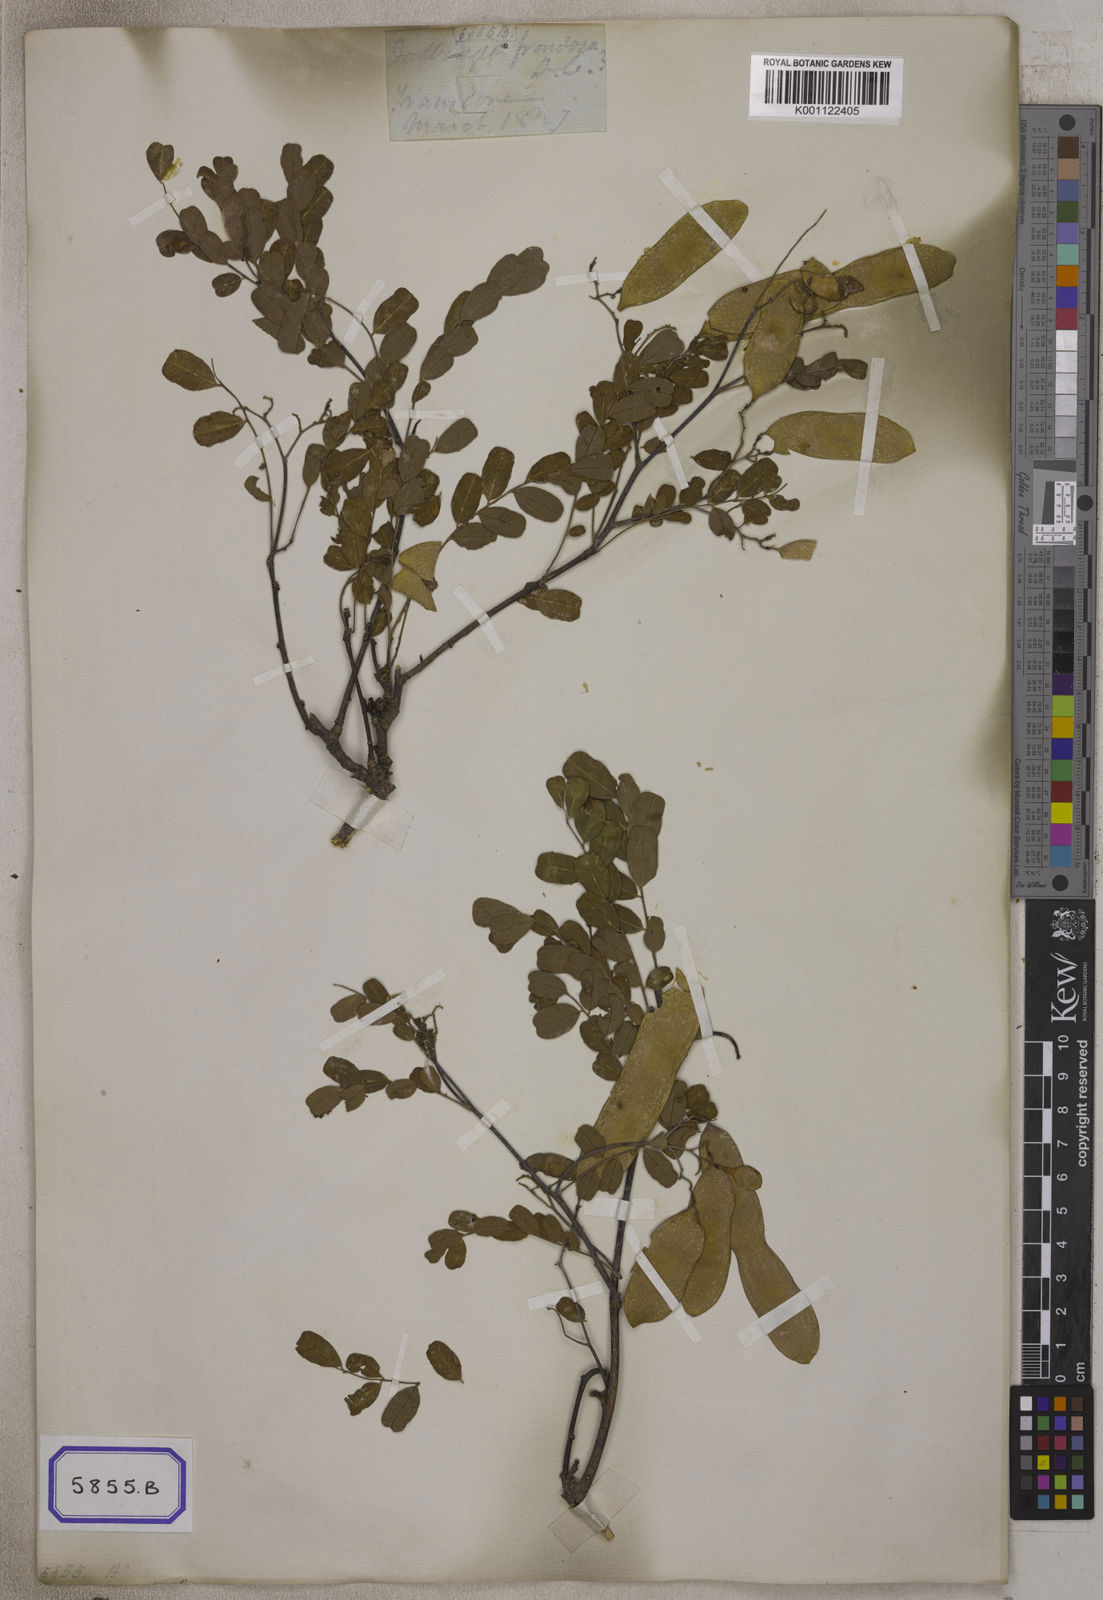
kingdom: Plantae
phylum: Tracheophyta
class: Magnoliopsida
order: Fabales
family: Fabaceae
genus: Dalbergia
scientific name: Dalbergia
